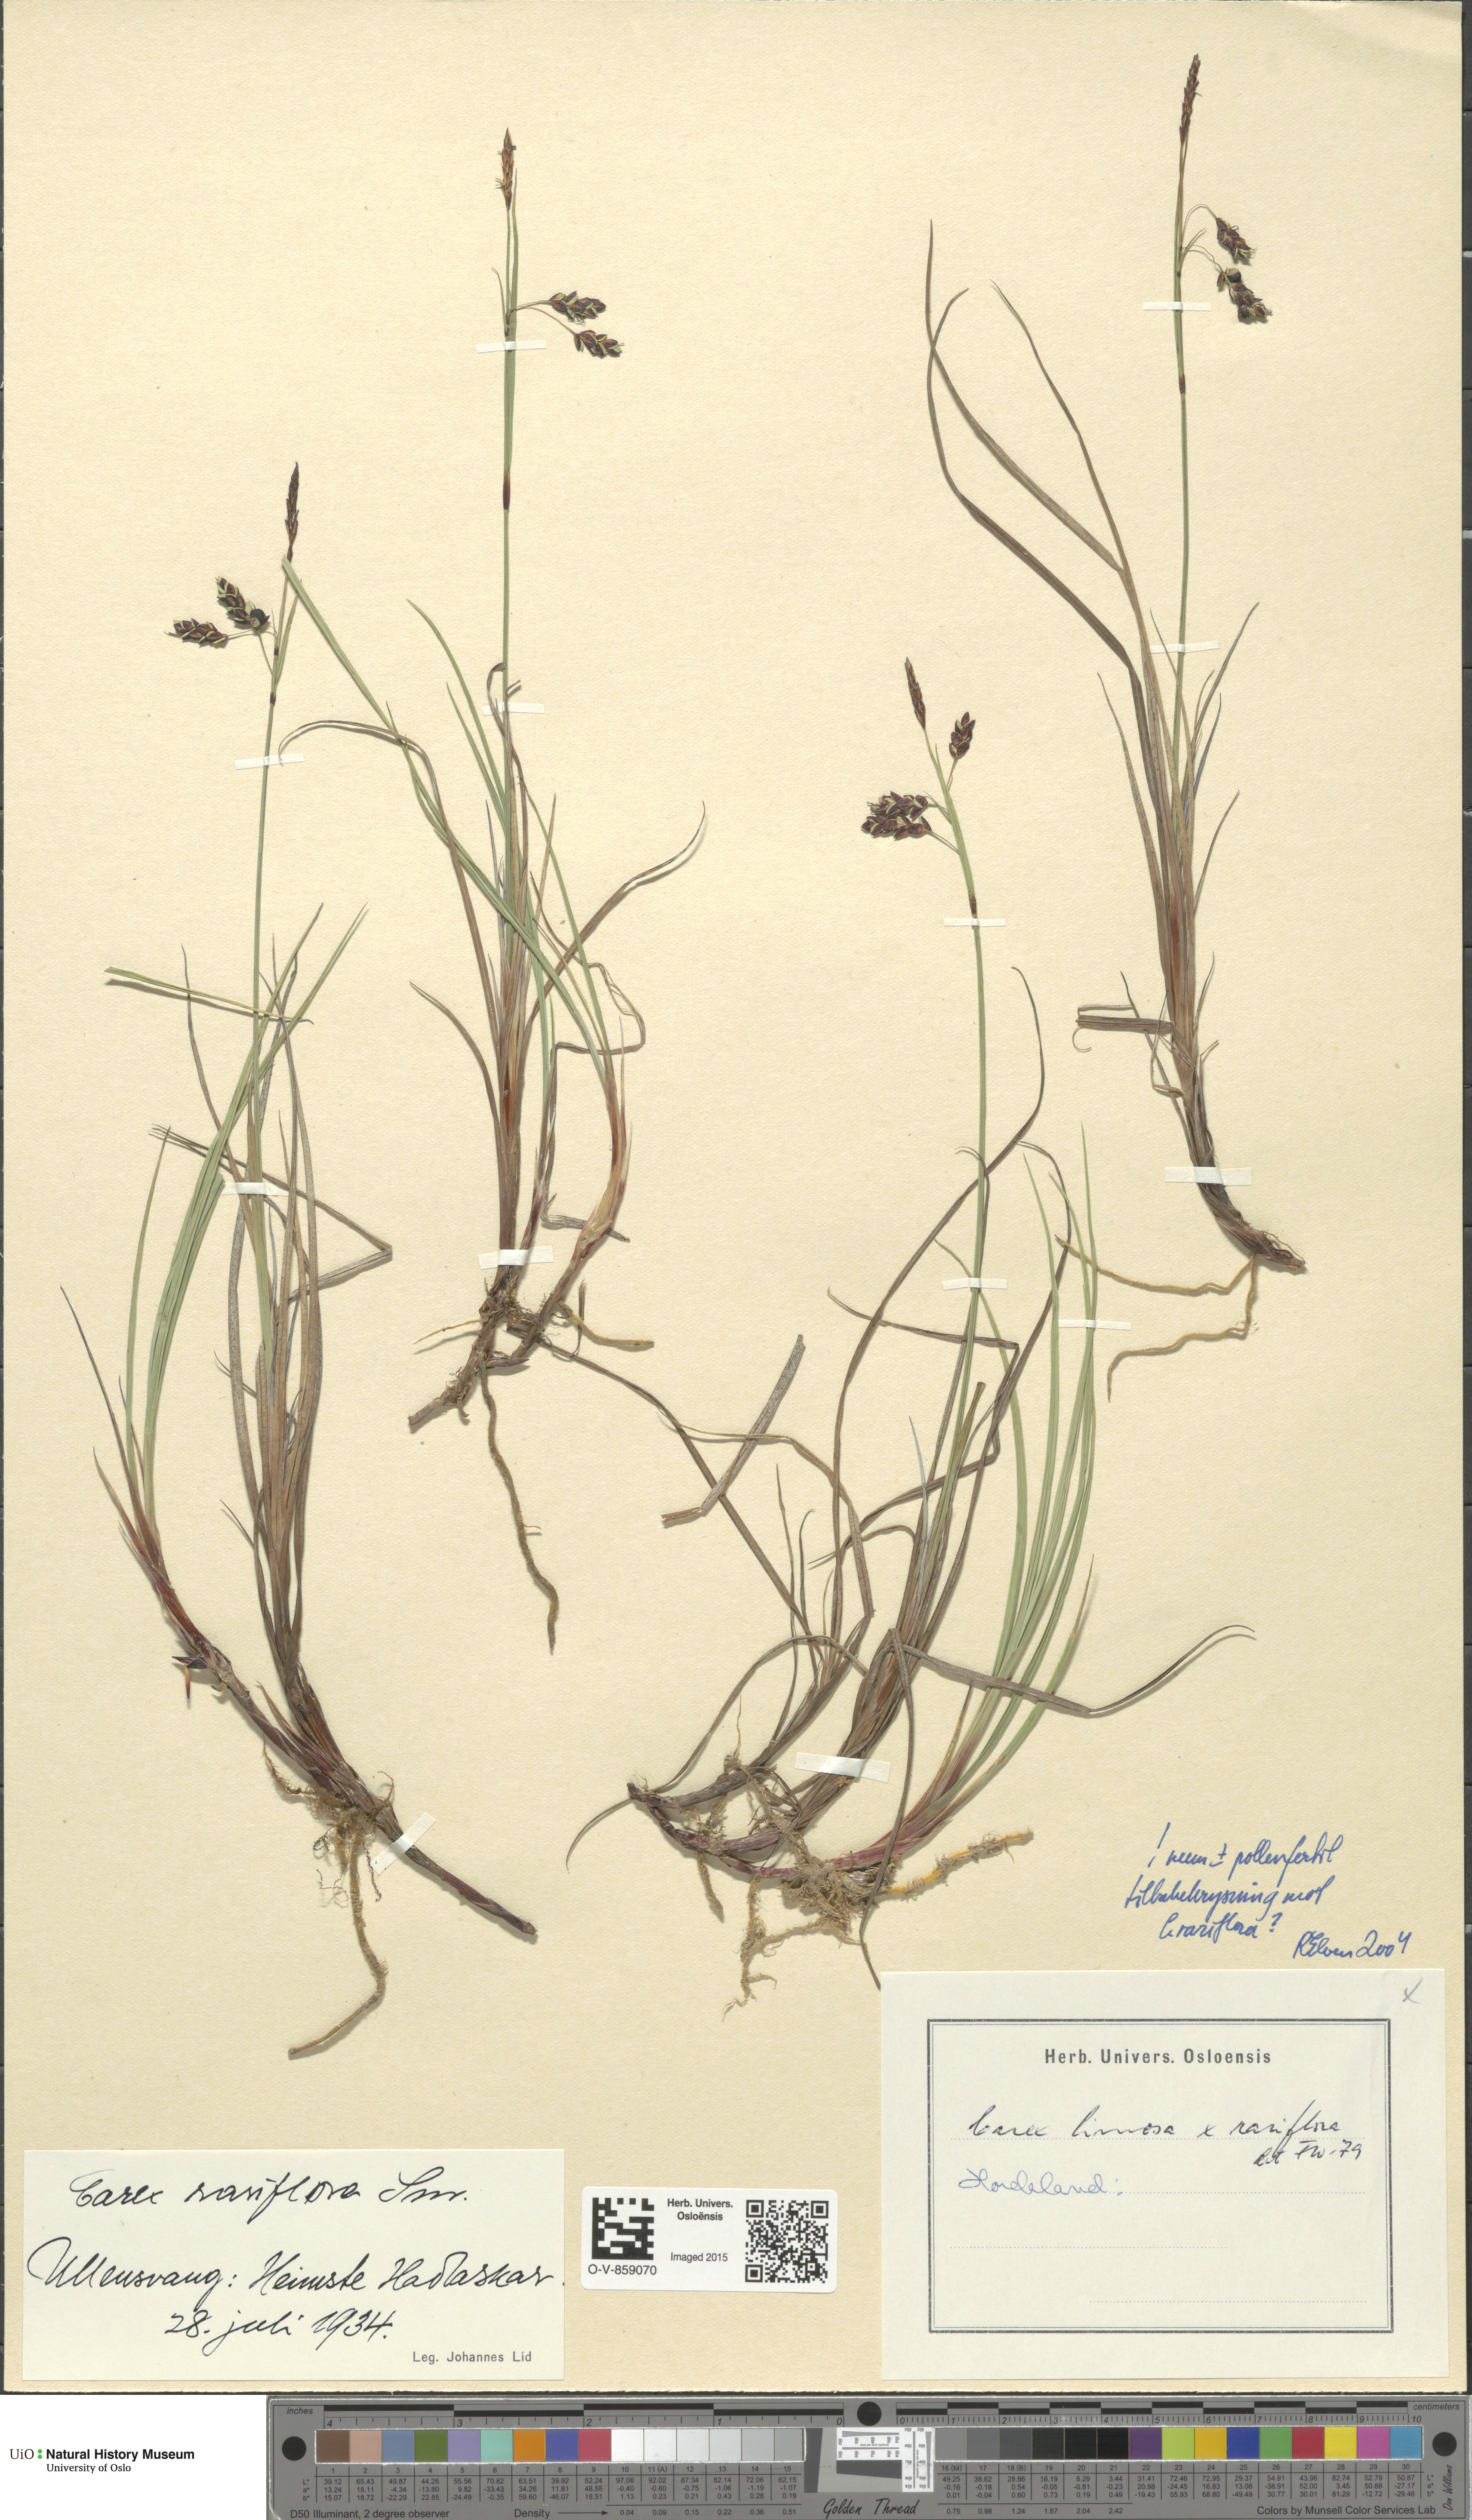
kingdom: Plantae
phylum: Tracheophyta
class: Liliopsida
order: Poales
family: Cyperaceae
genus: Carex
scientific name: Carex
